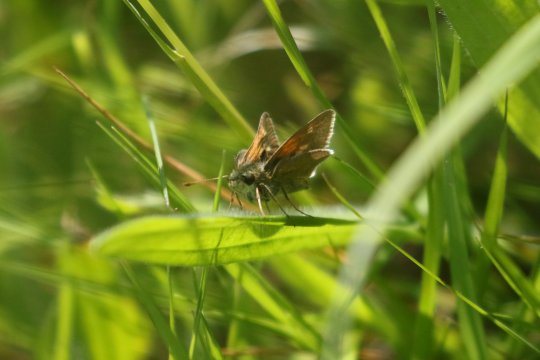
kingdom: Animalia
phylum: Arthropoda
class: Insecta
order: Lepidoptera
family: Hesperiidae
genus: Polites
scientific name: Polites
